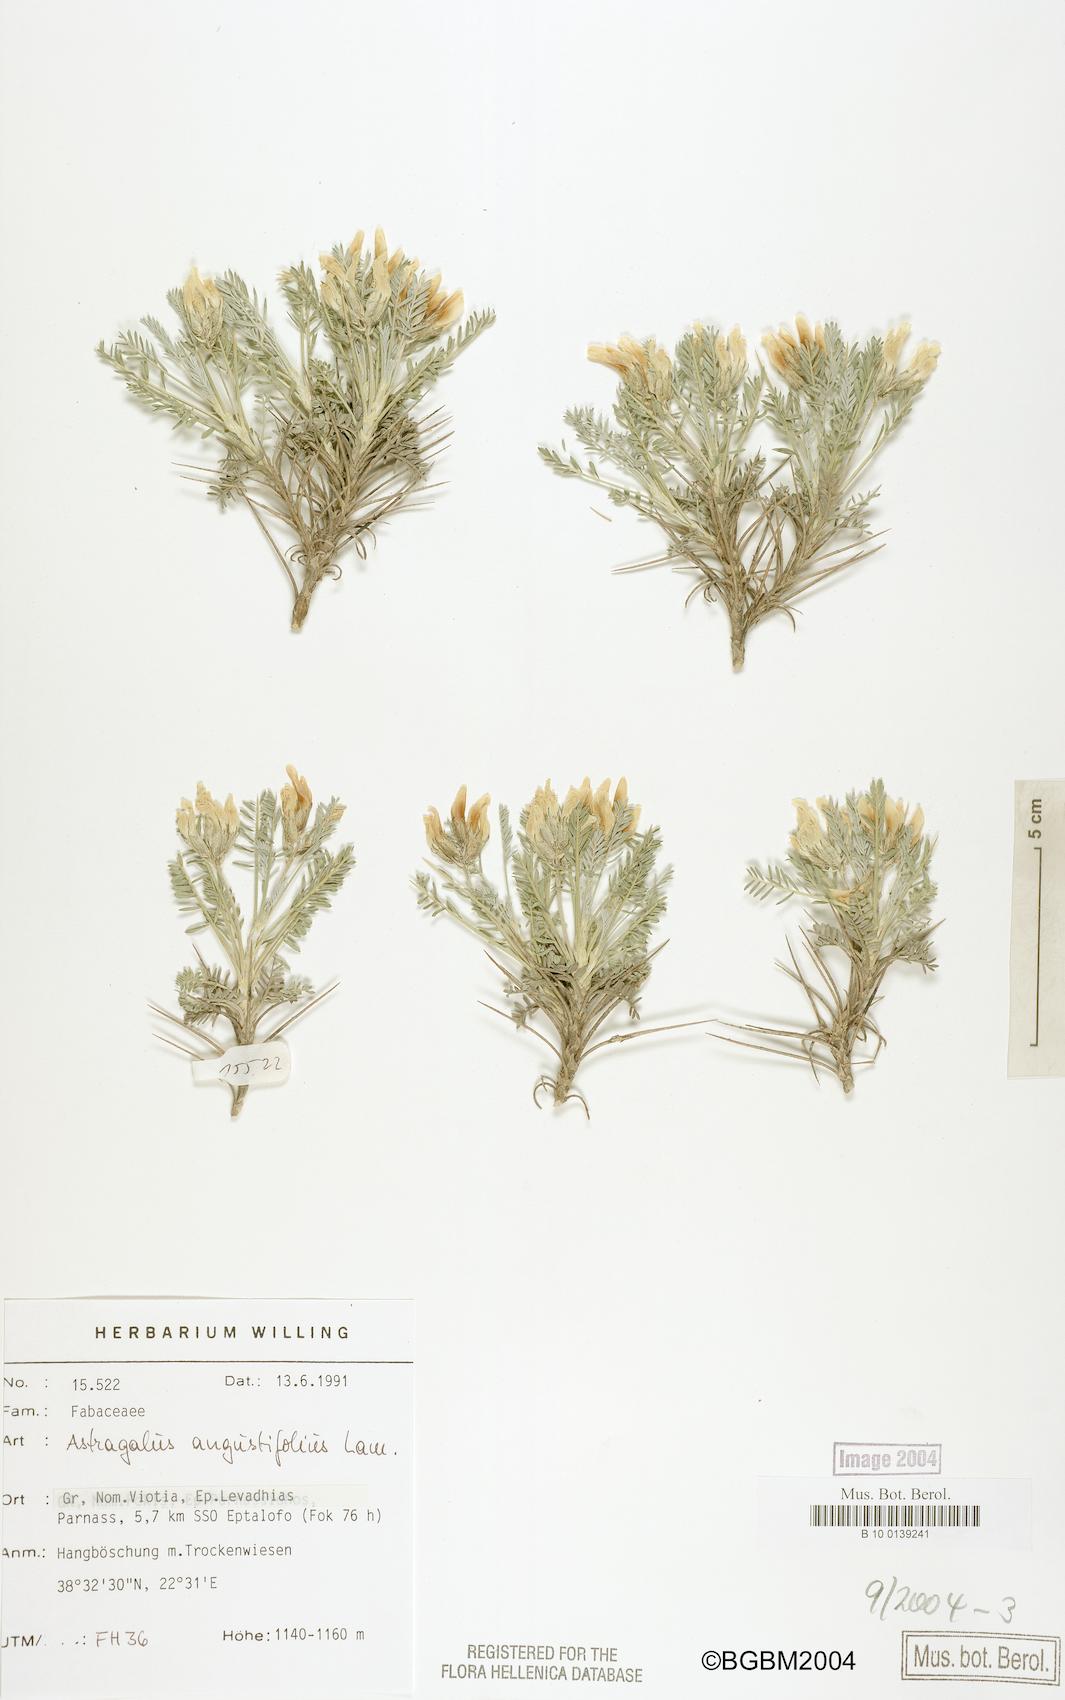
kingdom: Plantae
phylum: Tracheophyta
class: Magnoliopsida
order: Fabales
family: Fabaceae
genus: Astragalus
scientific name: Astragalus angustifolius
